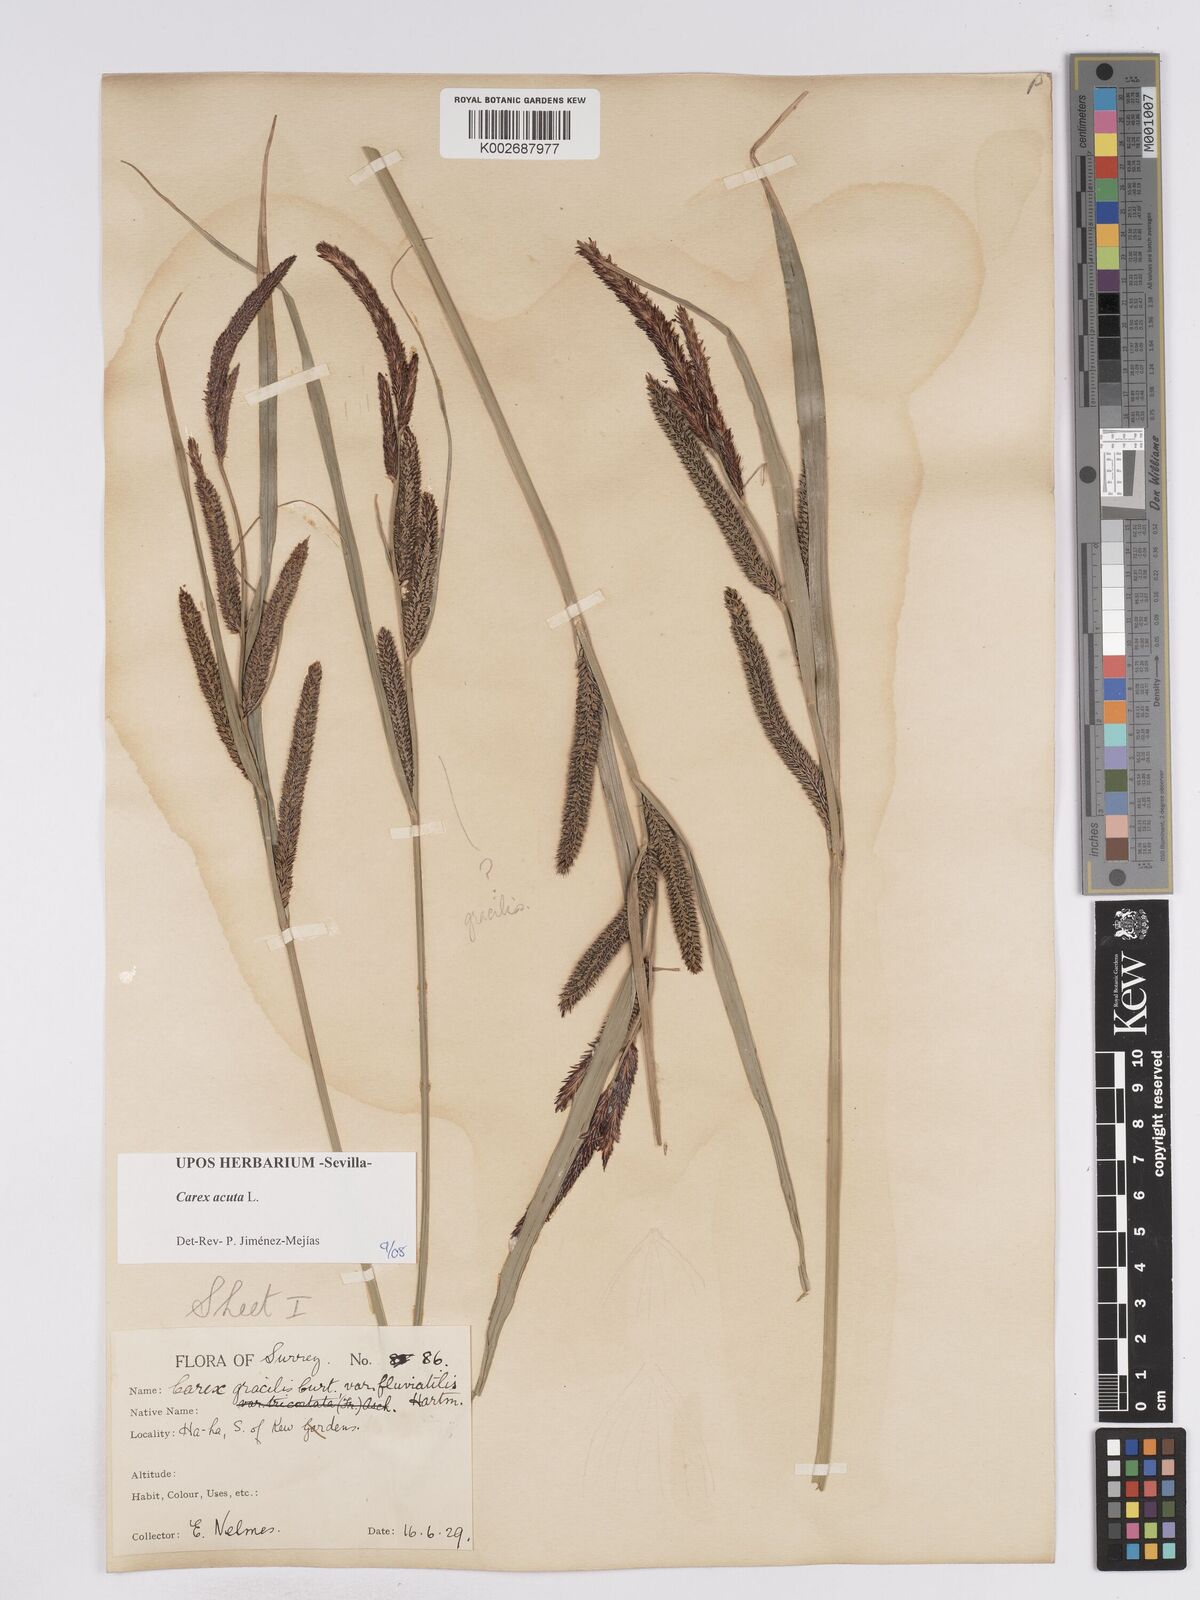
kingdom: Plantae
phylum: Tracheophyta
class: Liliopsida
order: Poales
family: Cyperaceae
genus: Carex
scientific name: Carex acuta
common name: Slender tufted-sedge
